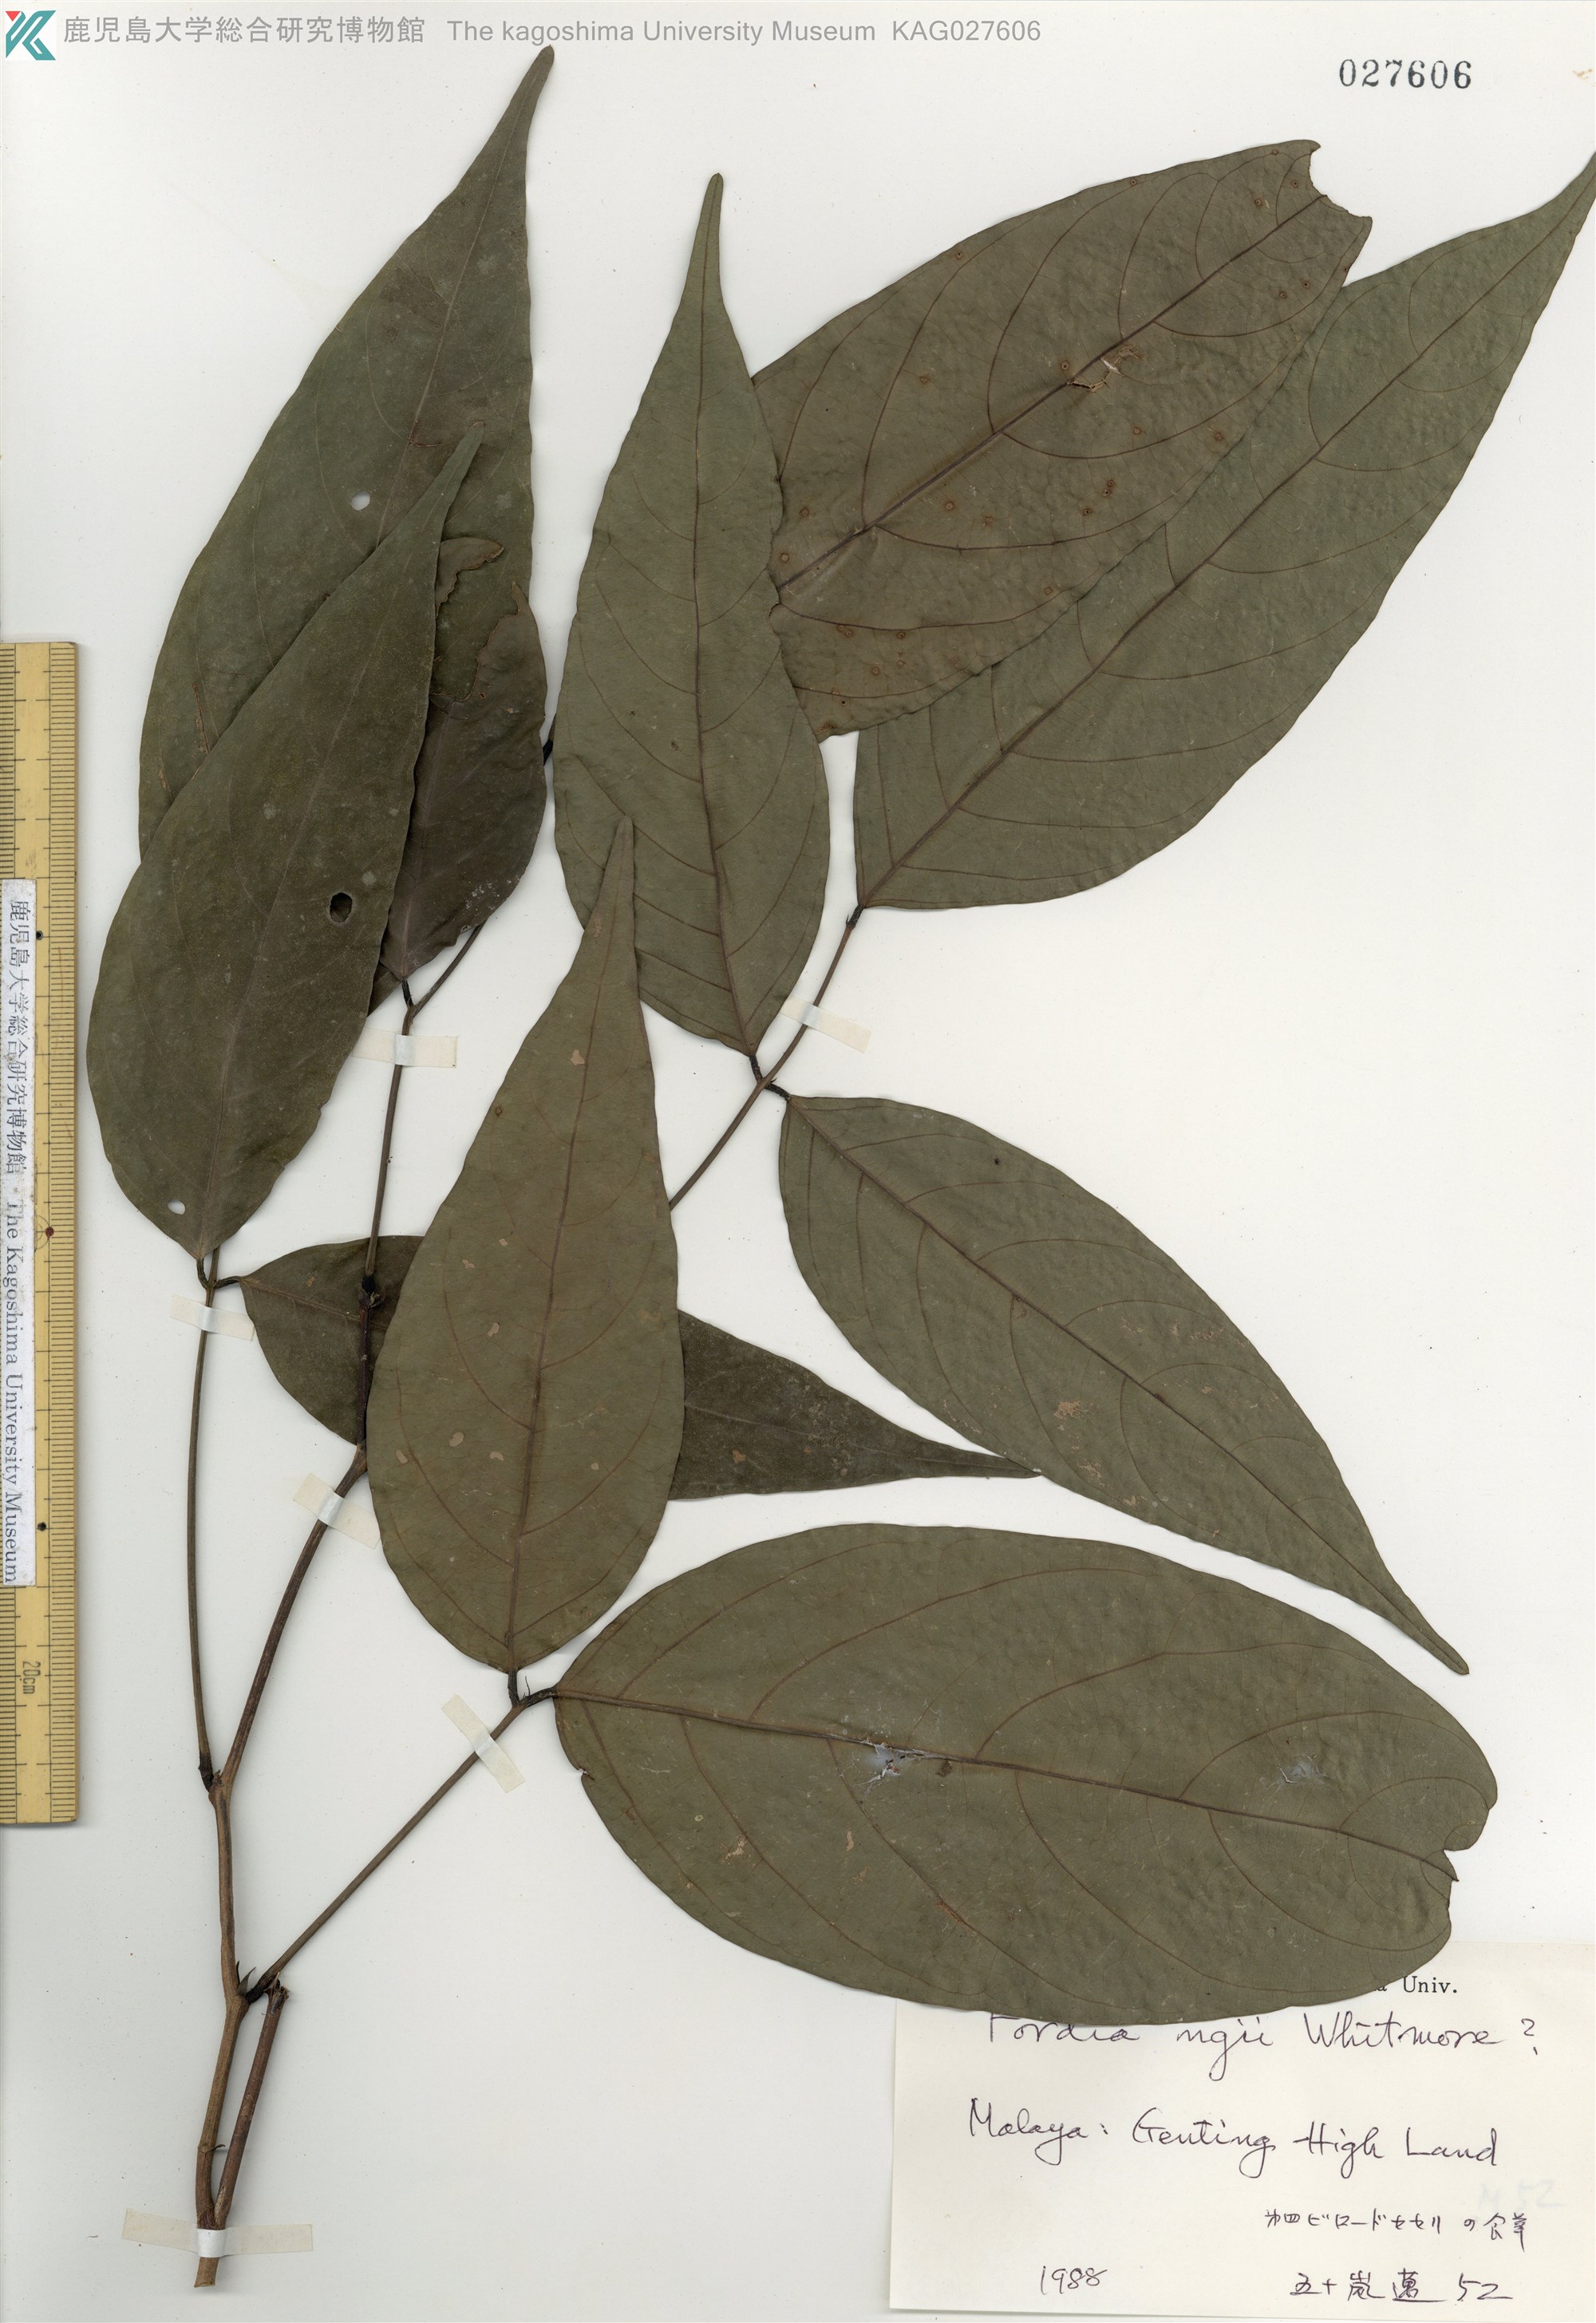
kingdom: Plantae
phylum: Tracheophyta
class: Magnoliopsida
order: Fabales
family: Fabaceae
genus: Fordia
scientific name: Fordia
